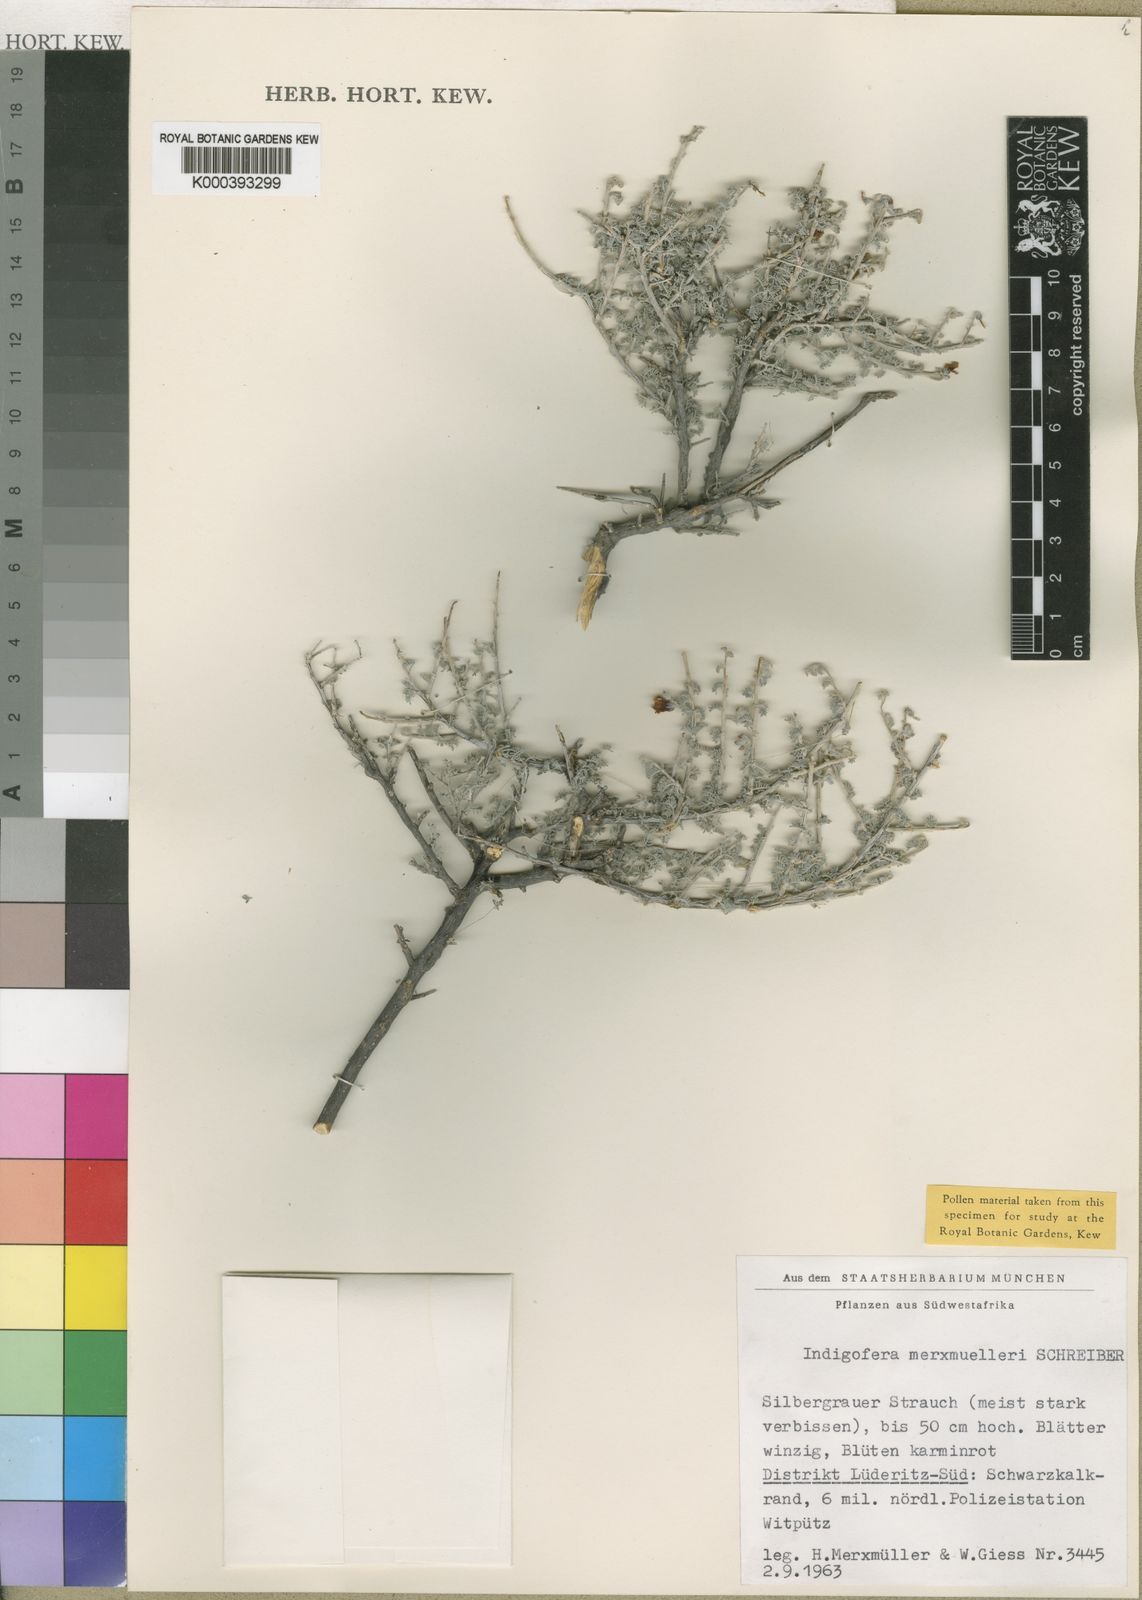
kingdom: Plantae
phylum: Tracheophyta
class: Magnoliopsida
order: Fabales
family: Fabaceae
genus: Indigofera
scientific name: Indigofera merxmuelleri
